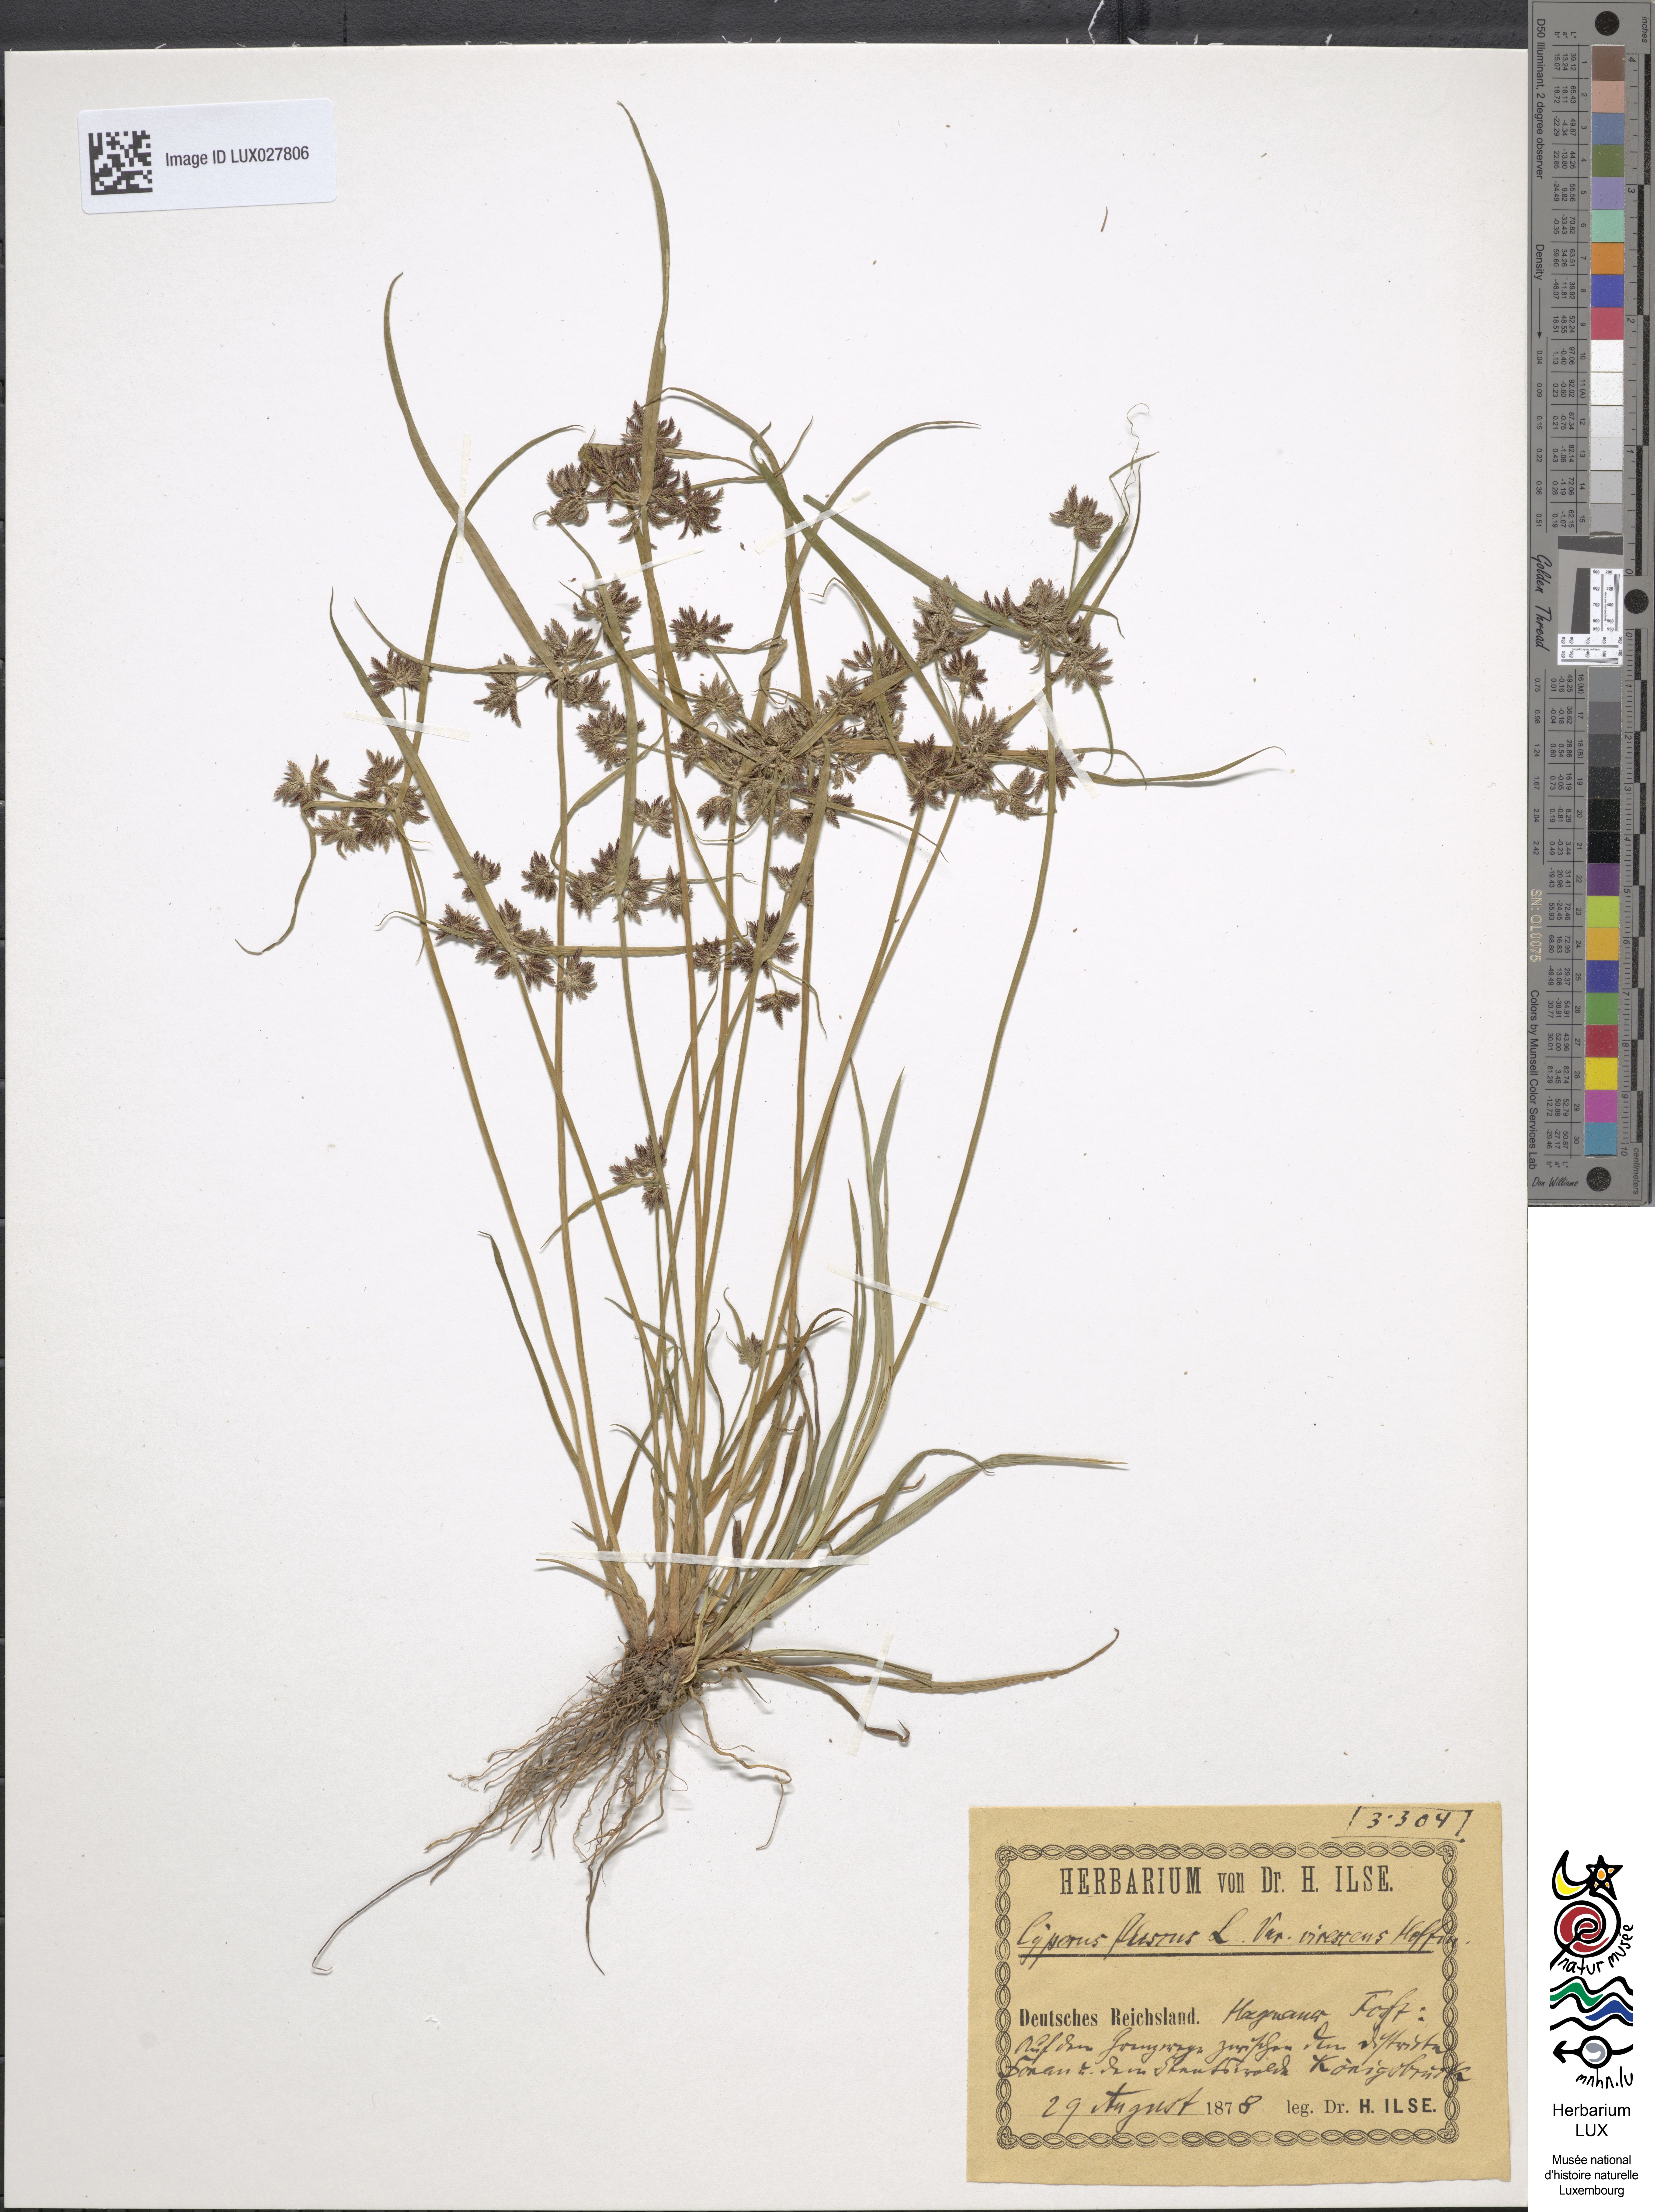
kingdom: Plantae
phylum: Tracheophyta
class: Liliopsida
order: Poales
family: Cyperaceae
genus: Carex
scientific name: Carex
